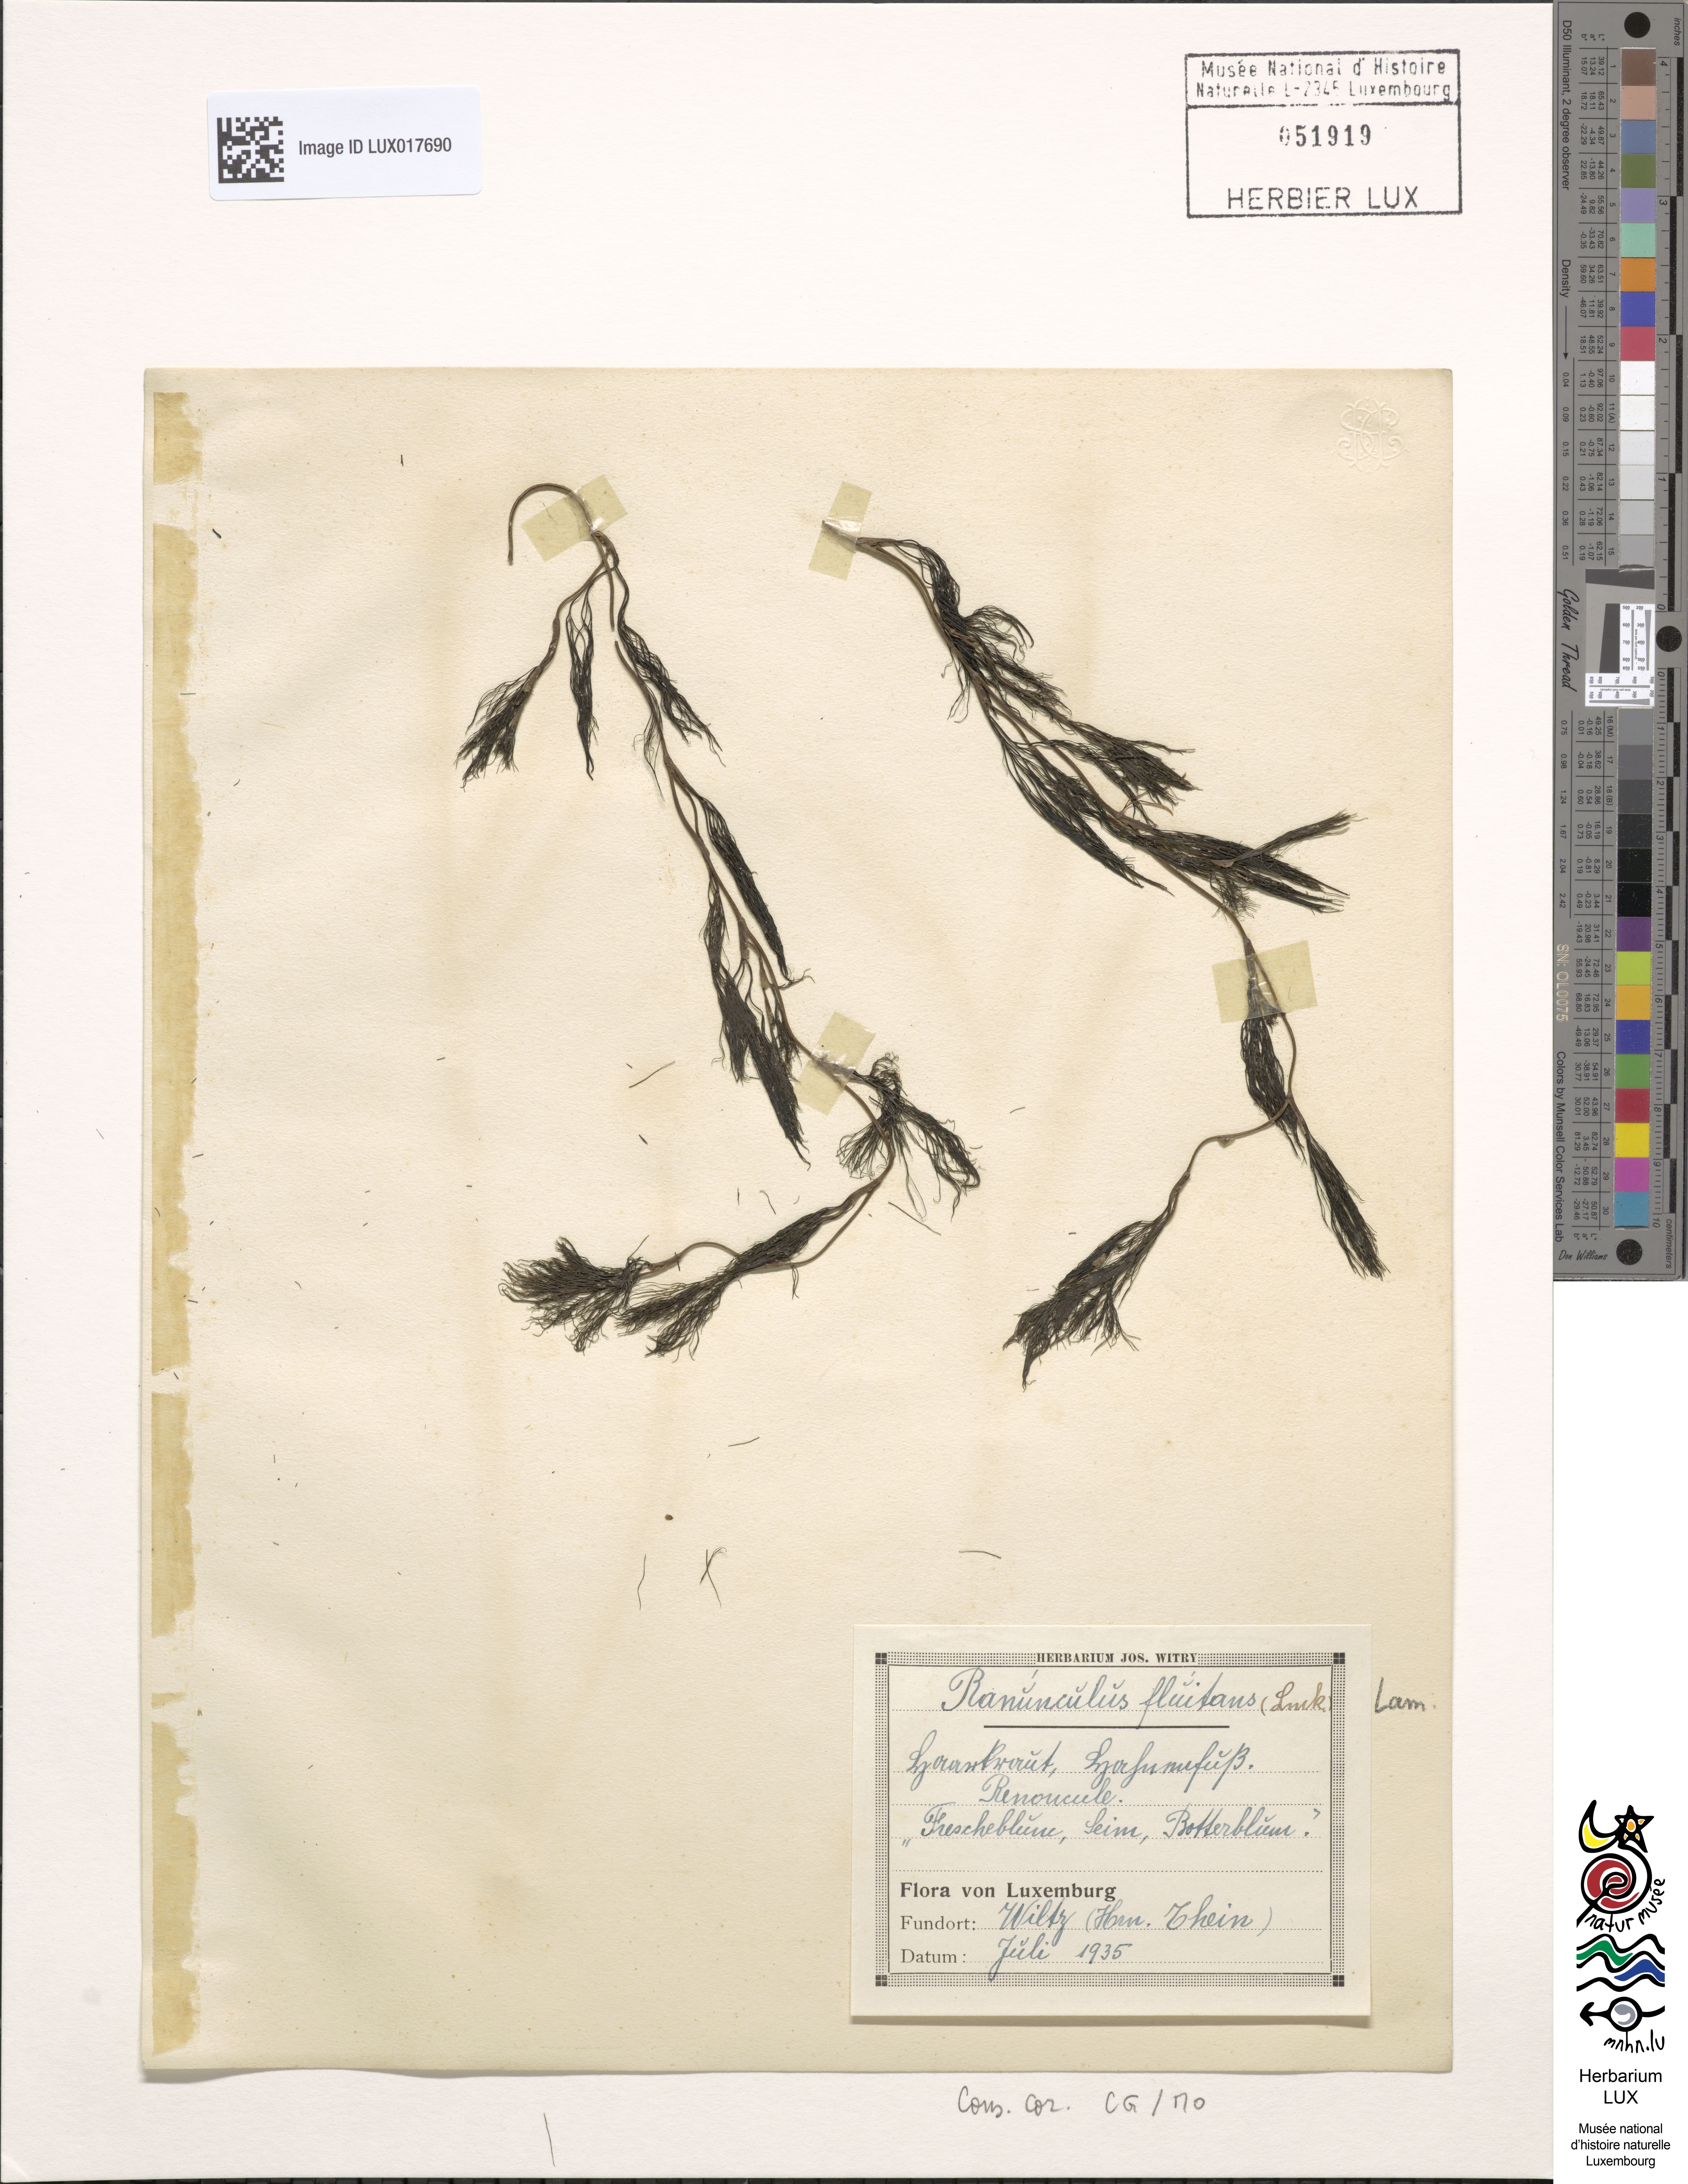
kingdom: Plantae
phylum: Tracheophyta
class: Magnoliopsida
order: Ranunculales
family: Ranunculaceae
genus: Ranunculus
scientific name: Ranunculus fluitans
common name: River water-crowfoot
